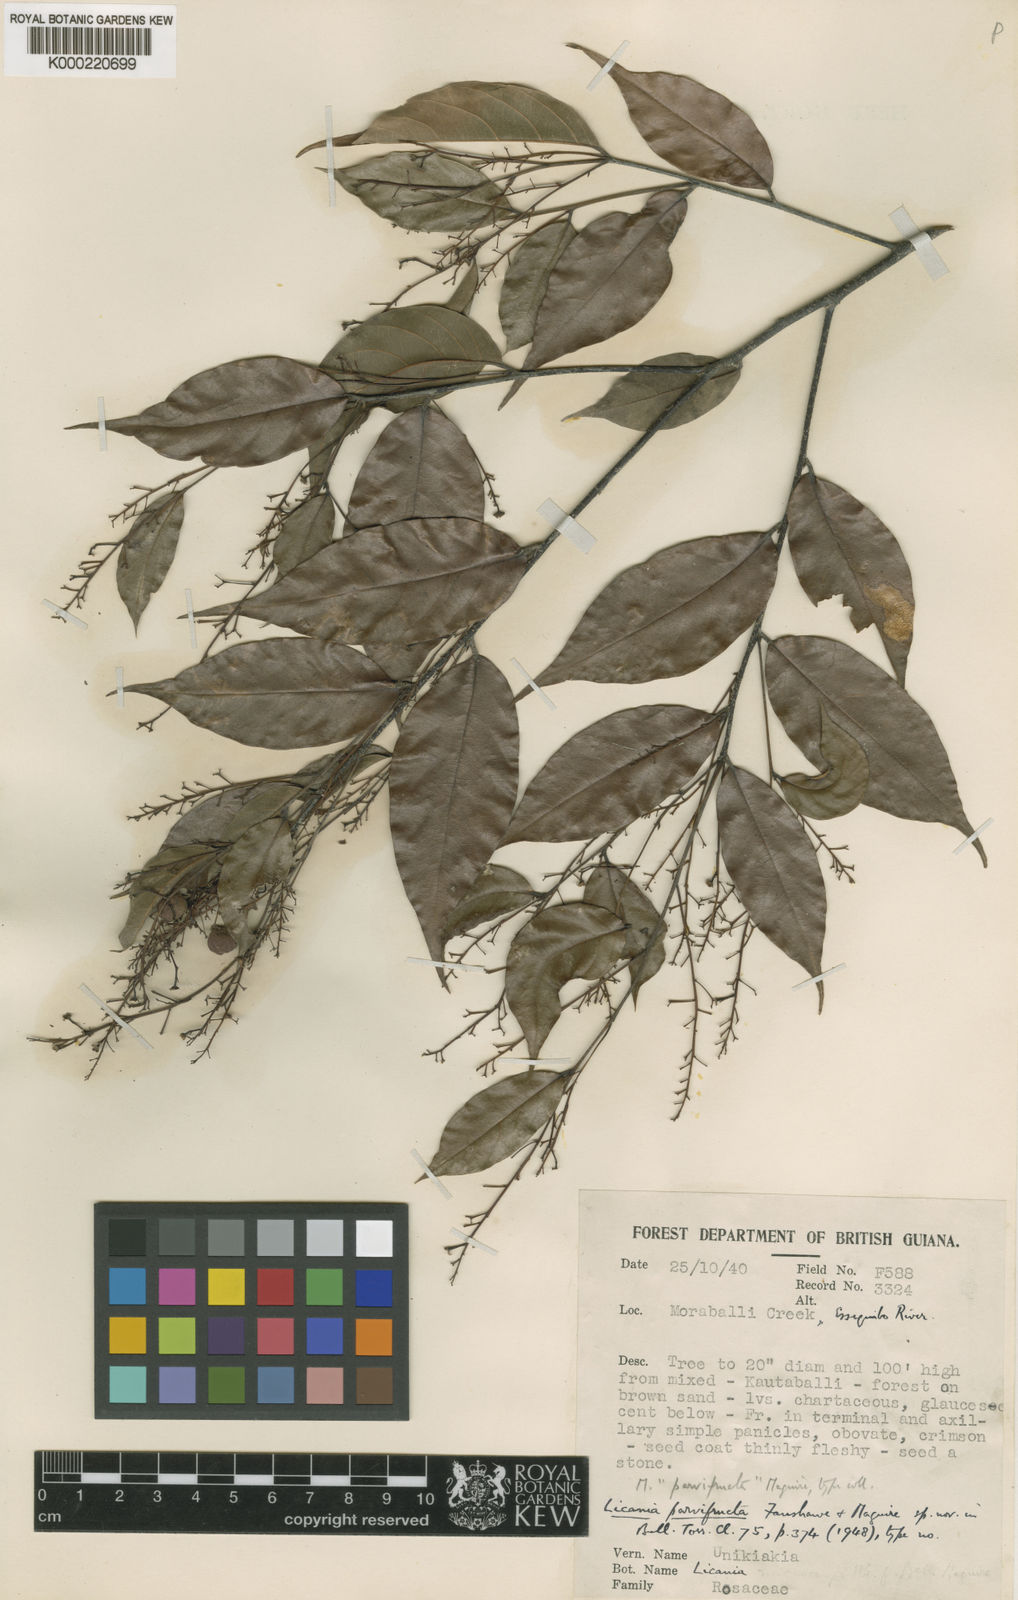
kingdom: Plantae
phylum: Tracheophyta
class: Magnoliopsida
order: Malpighiales
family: Chrysobalanaceae
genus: Licania
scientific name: Licania hypoleuca
